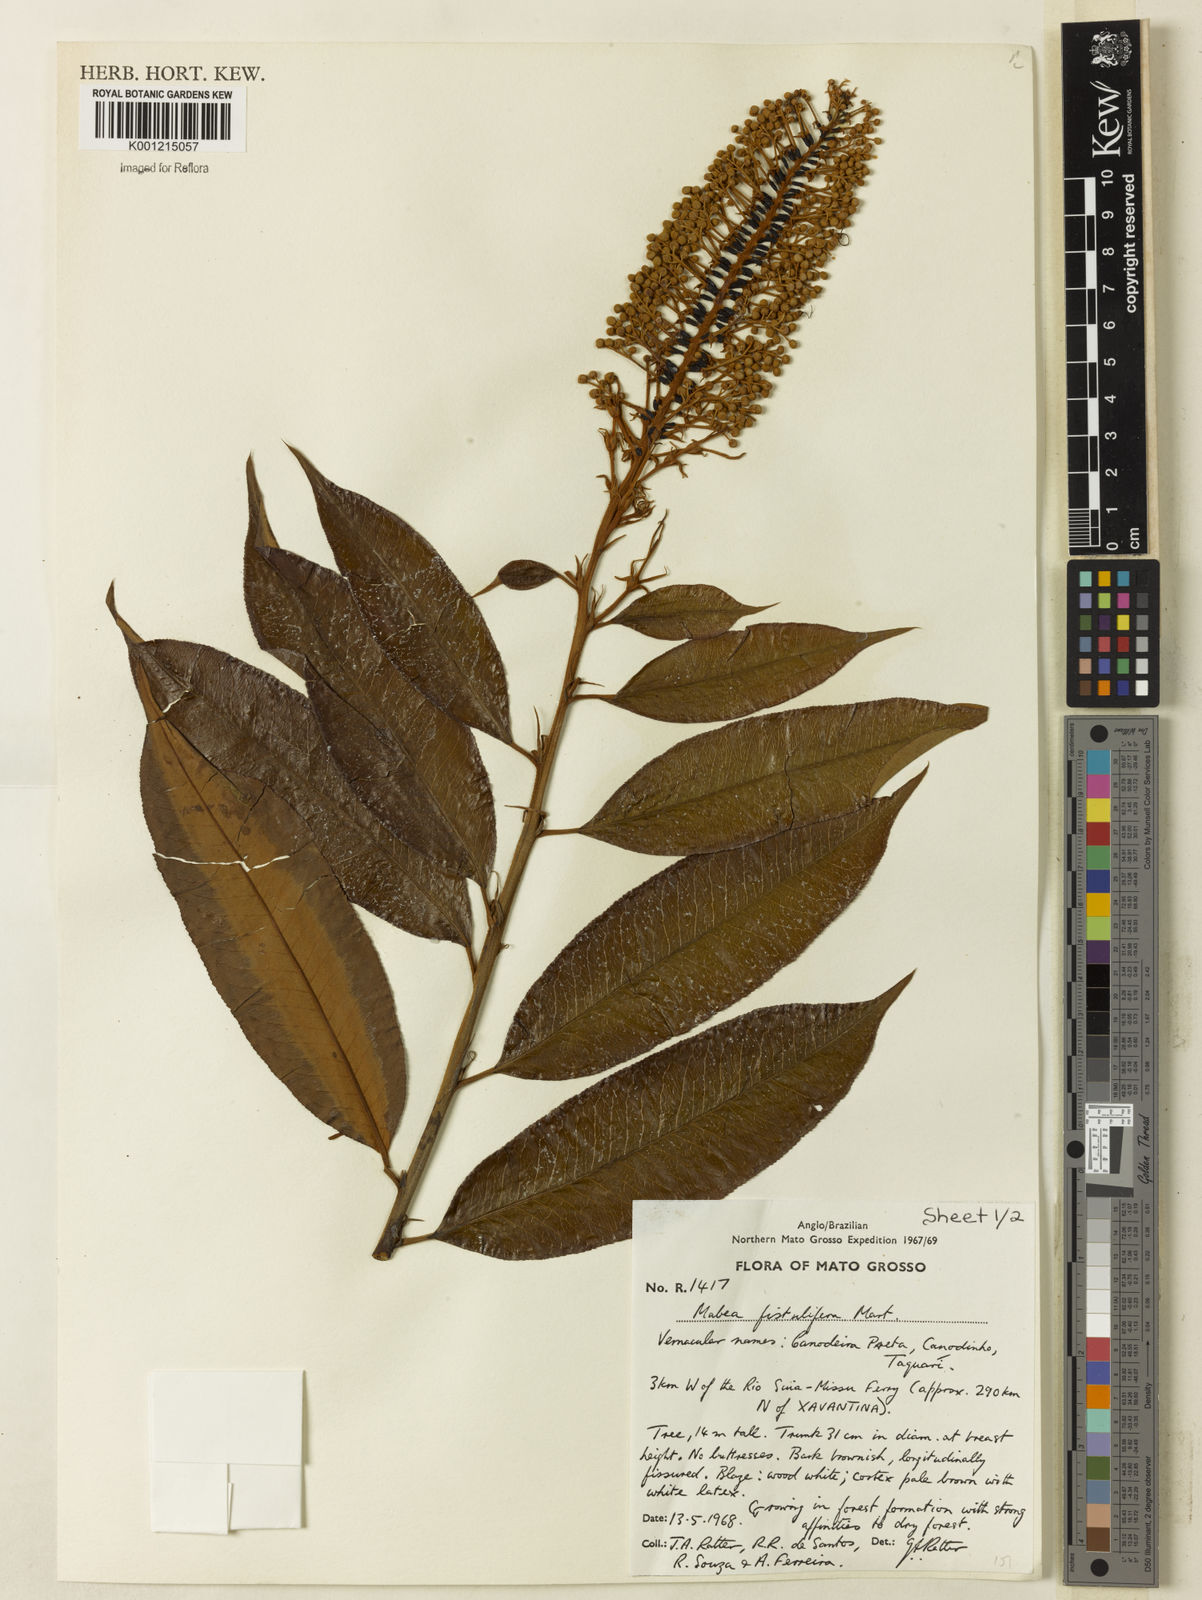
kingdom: Plantae
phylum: Tracheophyta
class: Magnoliopsida
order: Malpighiales
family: Euphorbiaceae
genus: Mabea
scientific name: Mabea fistulifera
